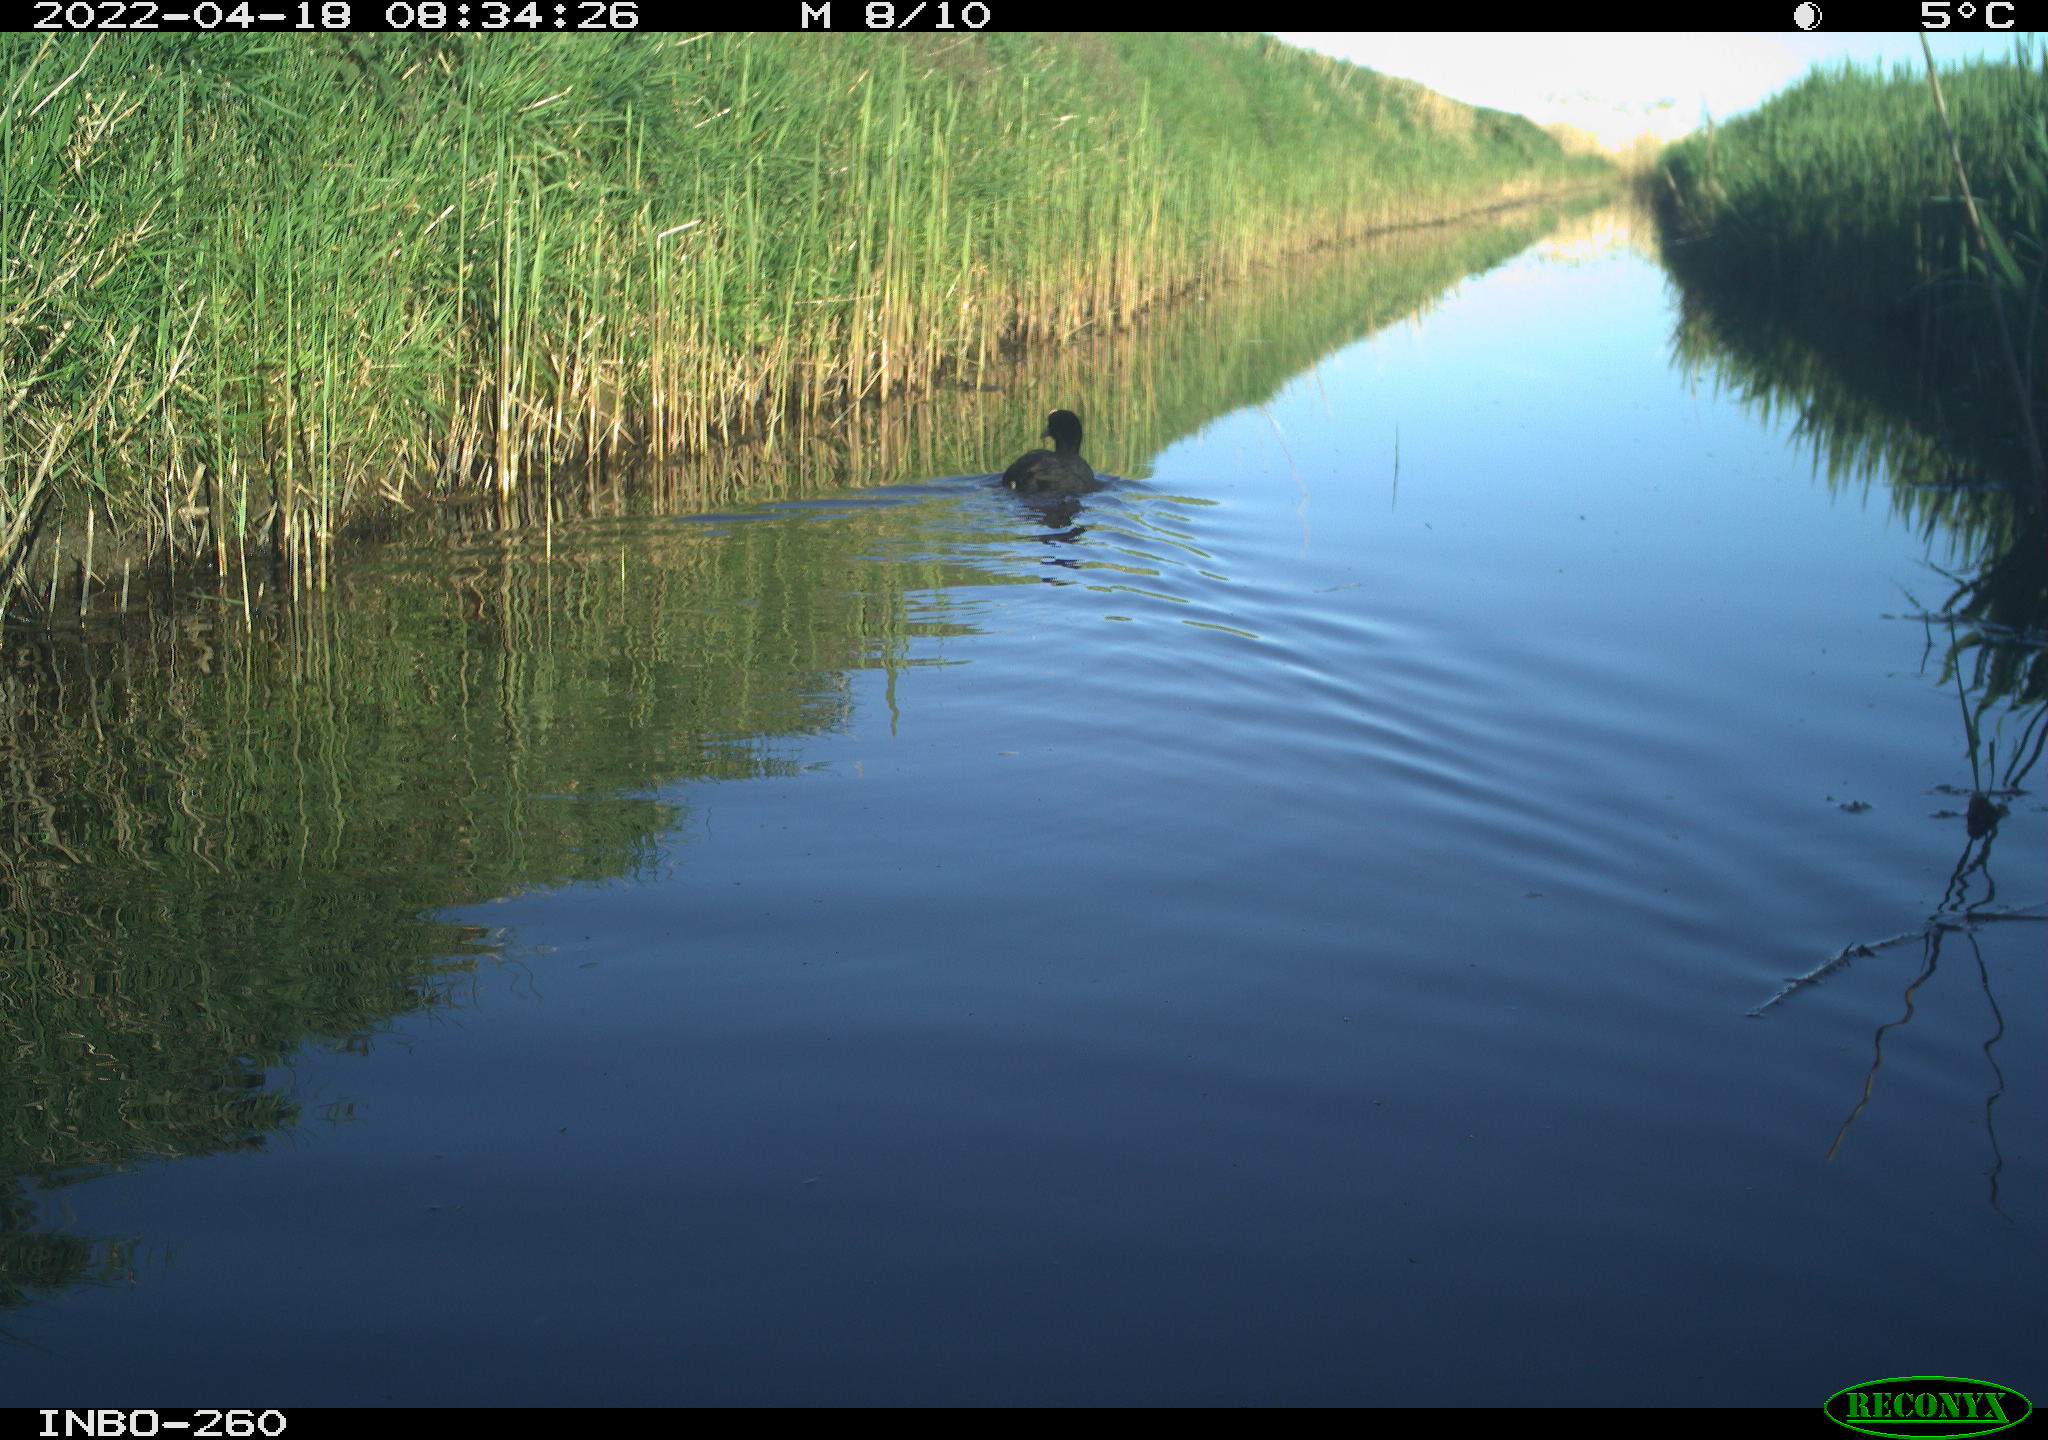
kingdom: Animalia
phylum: Chordata
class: Aves
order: Gruiformes
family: Rallidae
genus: Fulica
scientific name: Fulica atra
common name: Eurasian coot
